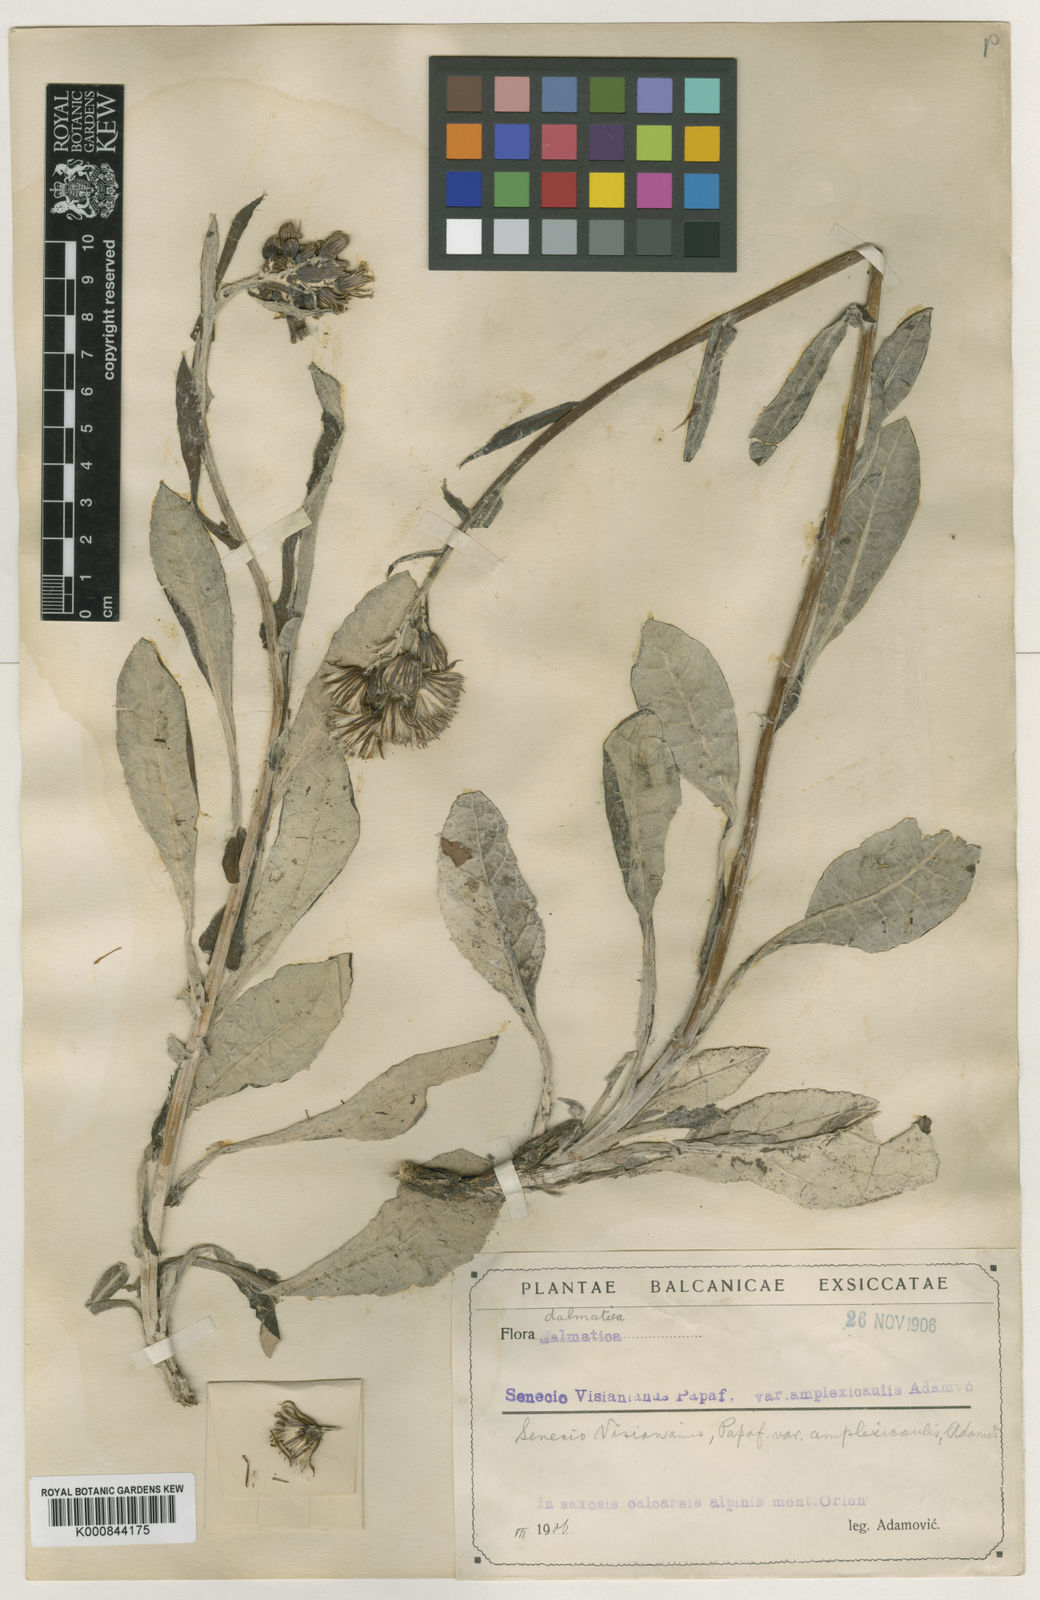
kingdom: Plantae
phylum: Tracheophyta
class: Magnoliopsida
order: Asterales
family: Asteraceae
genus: Senecio
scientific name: Senecio thapsoides
